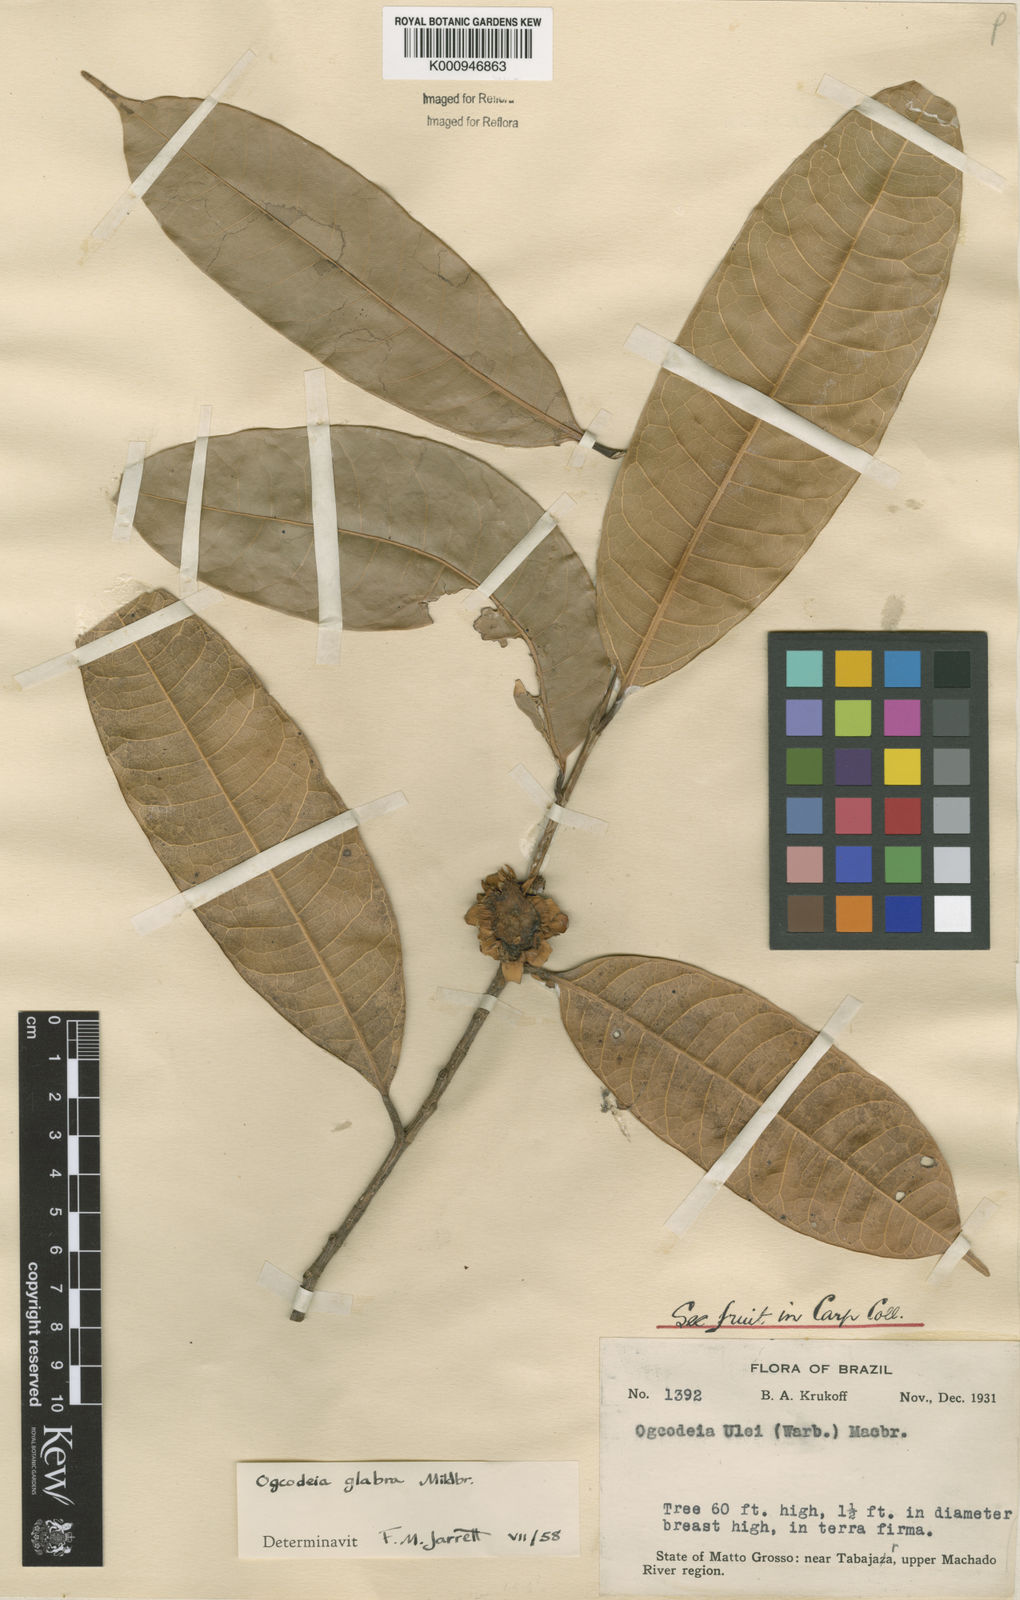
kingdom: Plantae
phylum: Tracheophyta
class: Magnoliopsida
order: Rosales
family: Moraceae
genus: Naucleopsis
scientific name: Naucleopsis glabra
